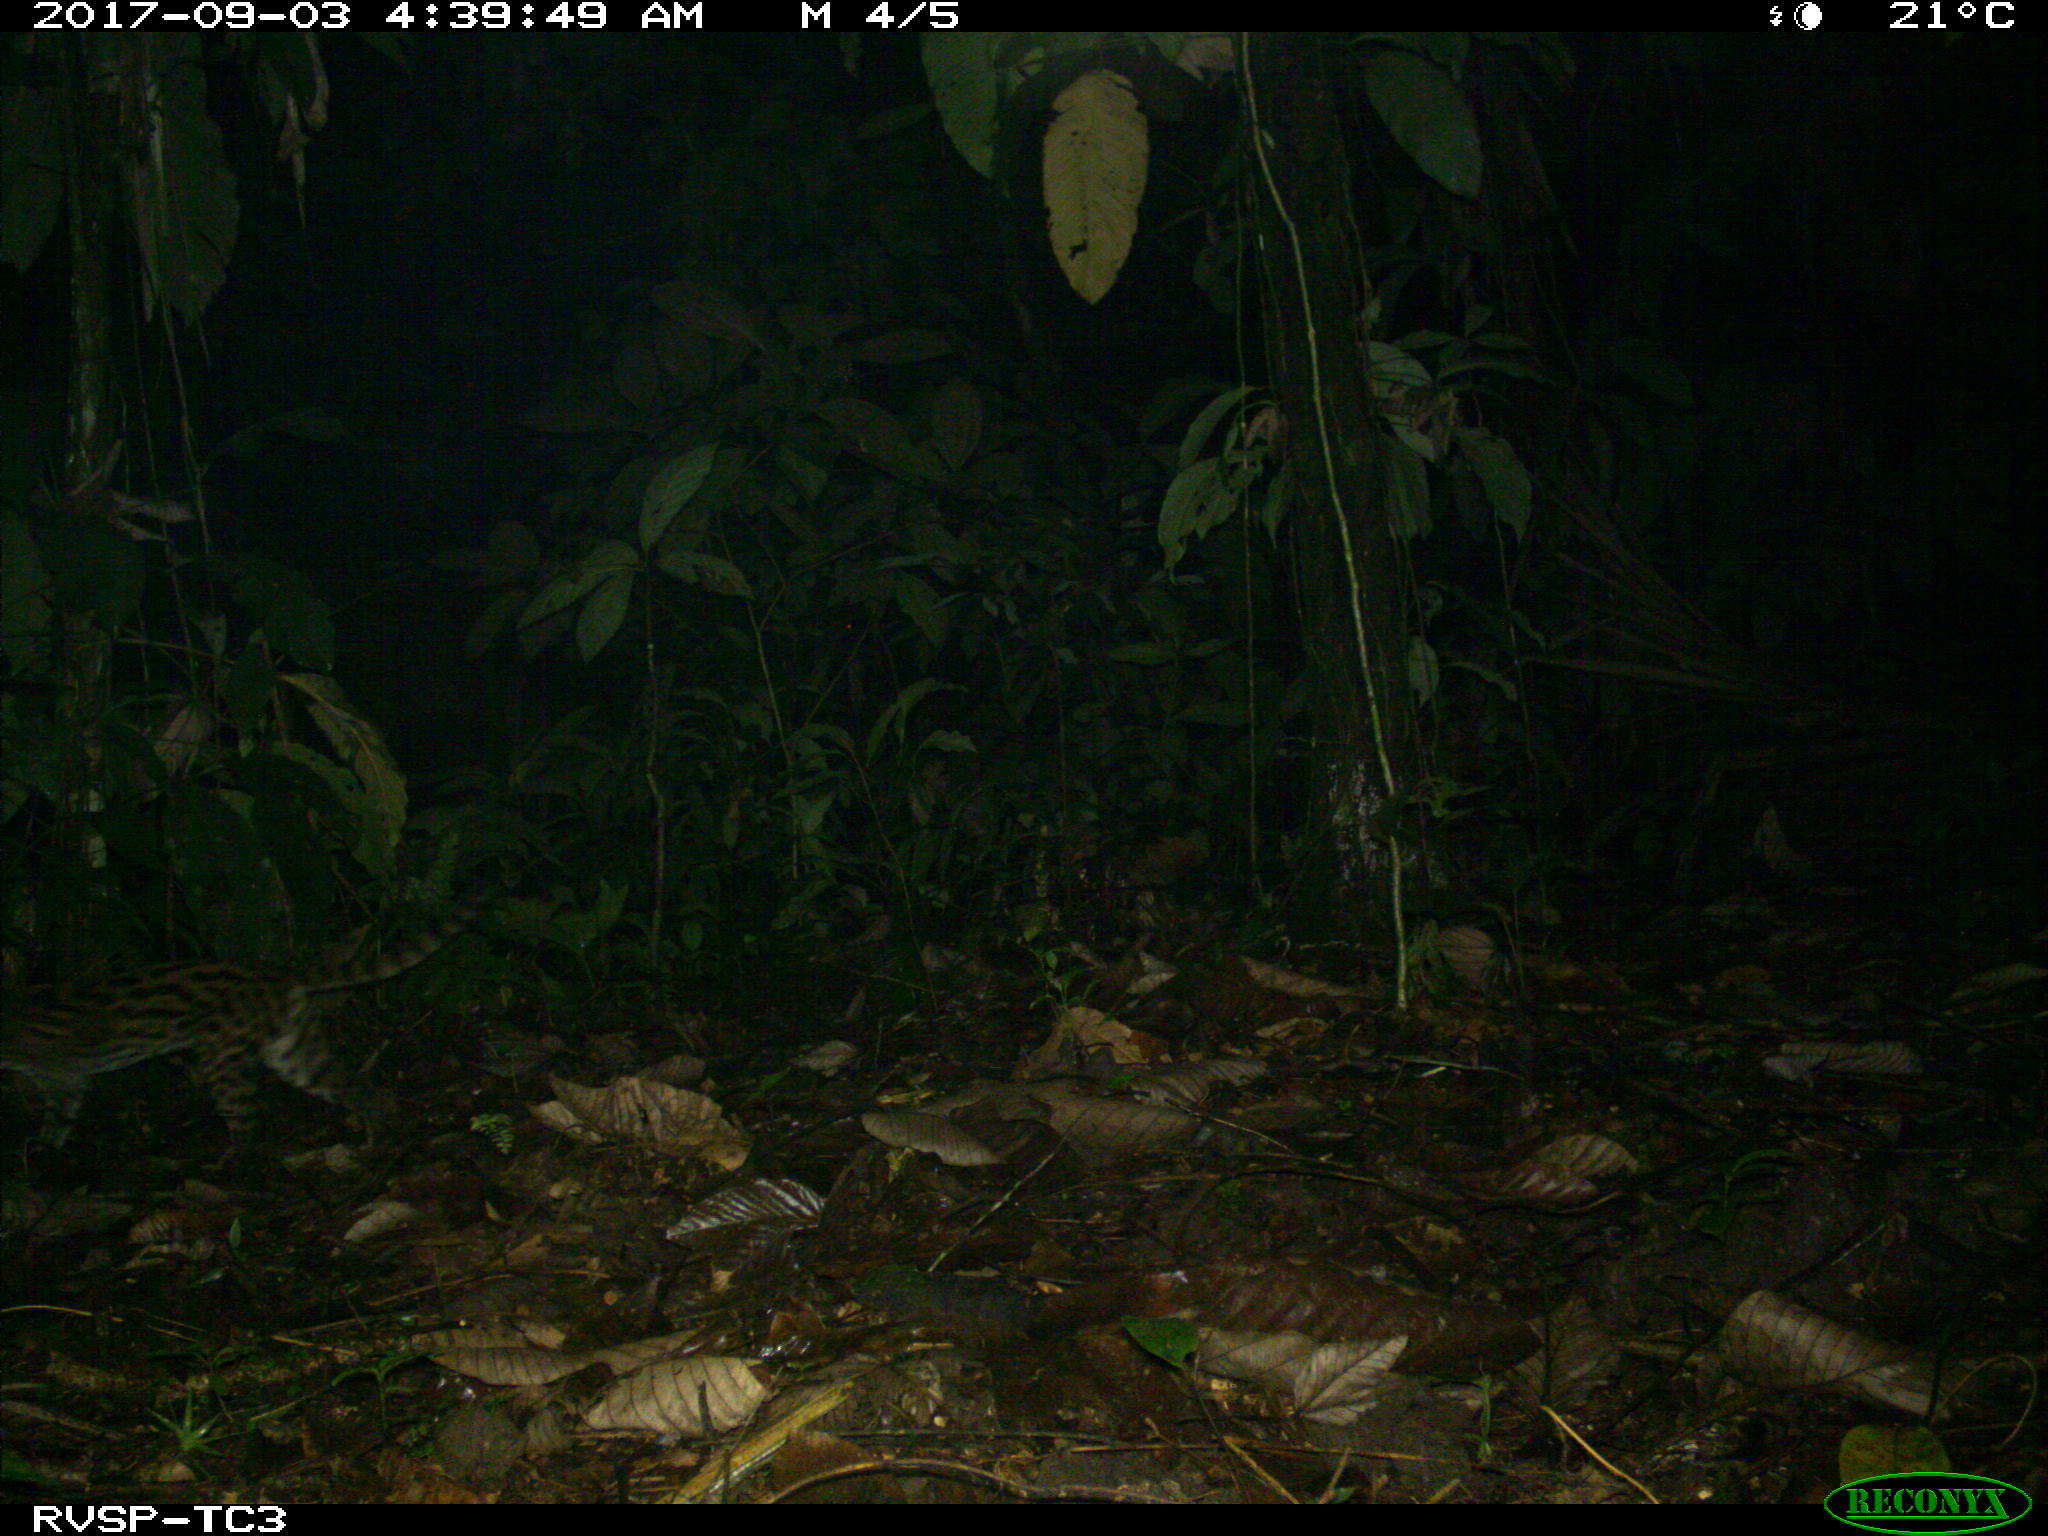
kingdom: Animalia
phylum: Chordata
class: Mammalia
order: Carnivora
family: Felidae
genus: Leopardus
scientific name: Leopardus wiedii
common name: Margay
